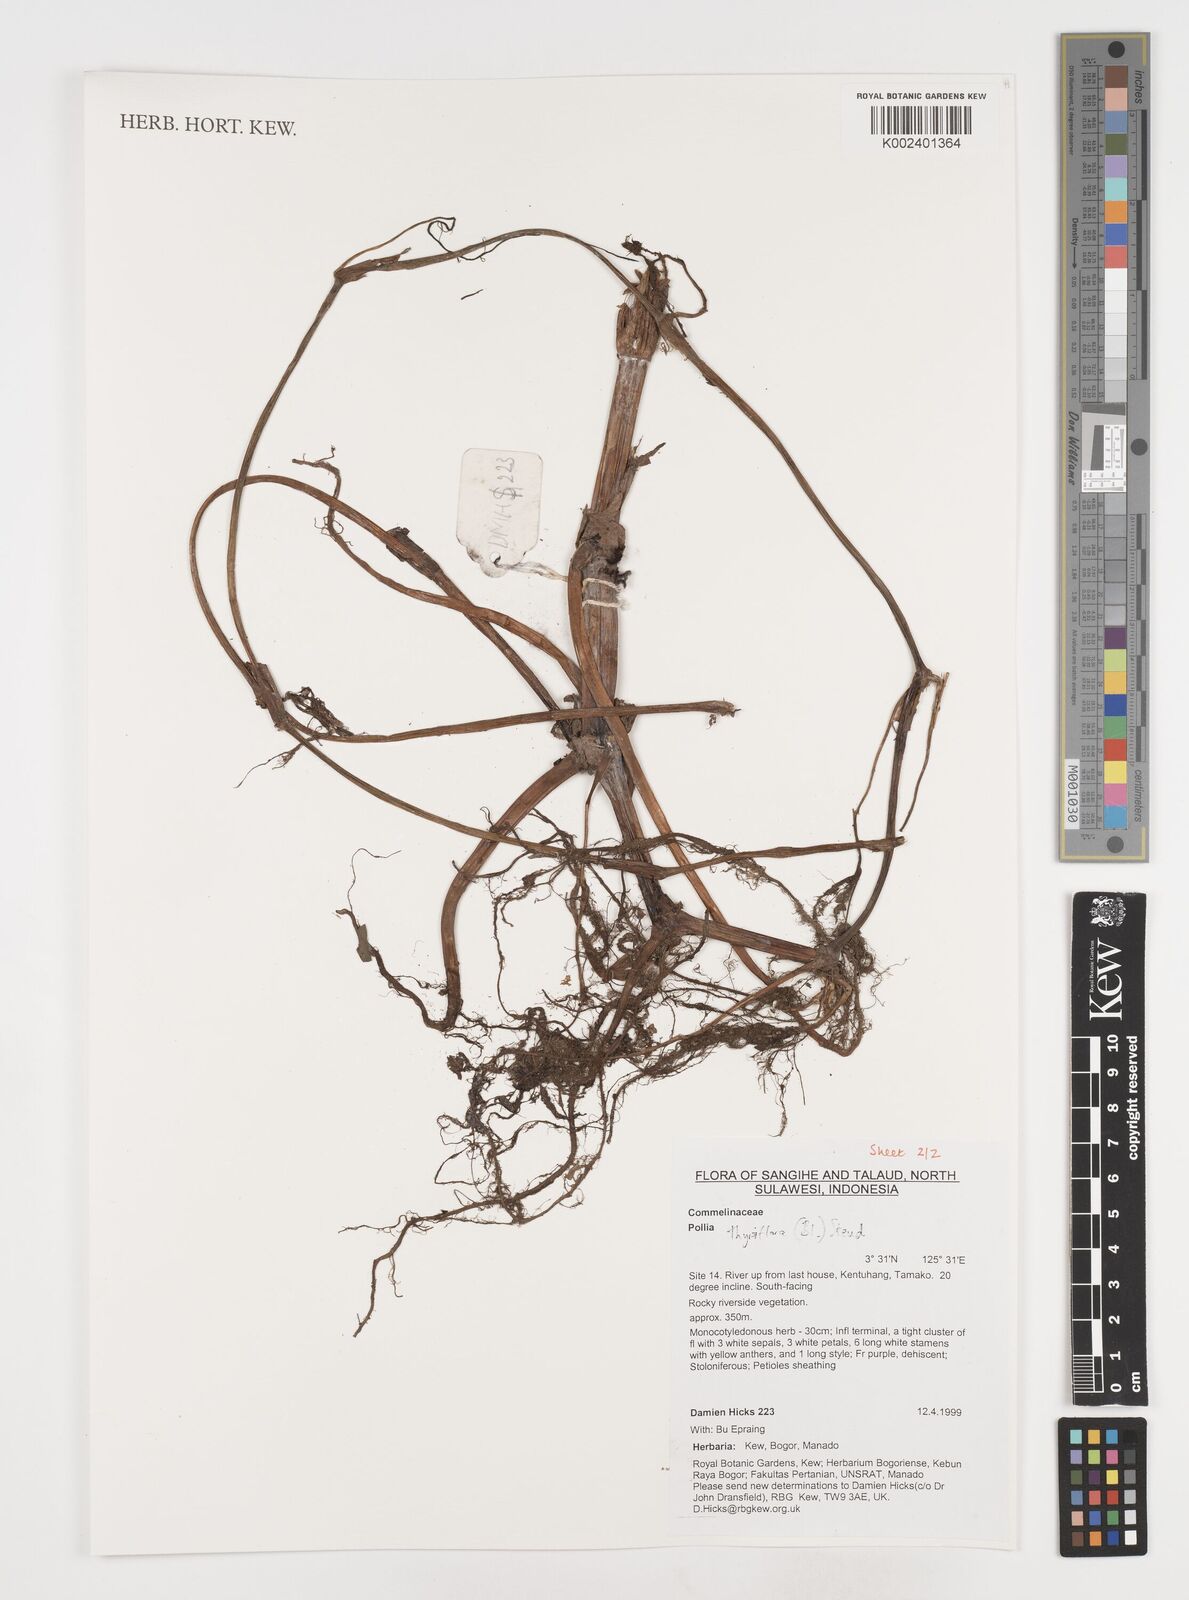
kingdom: Plantae
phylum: Tracheophyta
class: Liliopsida
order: Commelinales
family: Commelinaceae
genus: Pollia
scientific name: Pollia thyrsiflora
